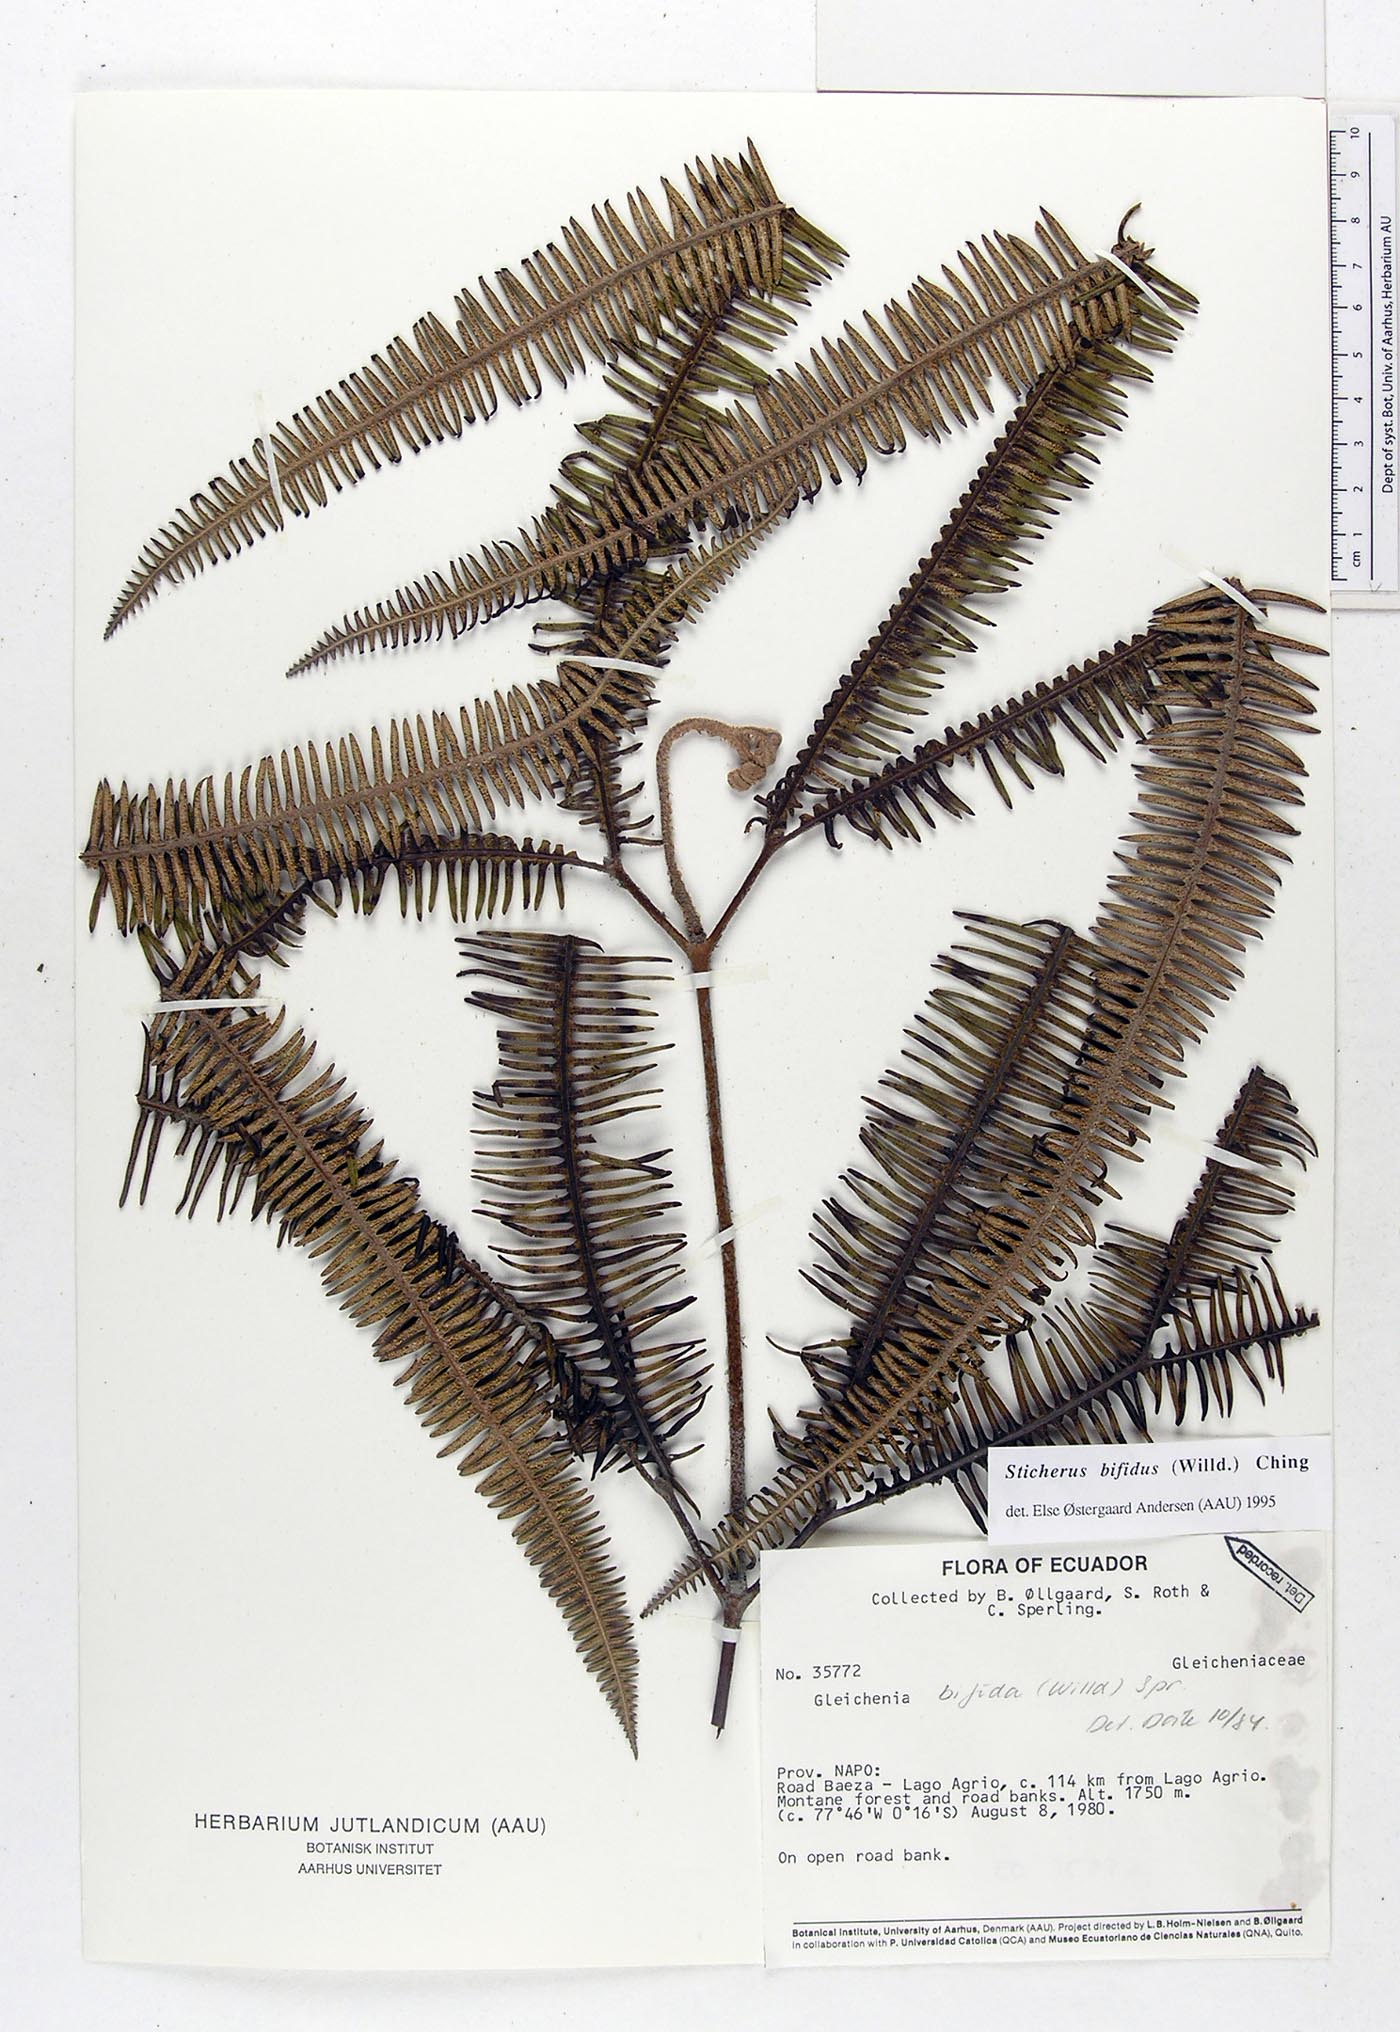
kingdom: Plantae
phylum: Tracheophyta
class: Polypodiopsida
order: Gleicheniales
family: Gleicheniaceae
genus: Sticherus
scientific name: Sticherus bifidus
